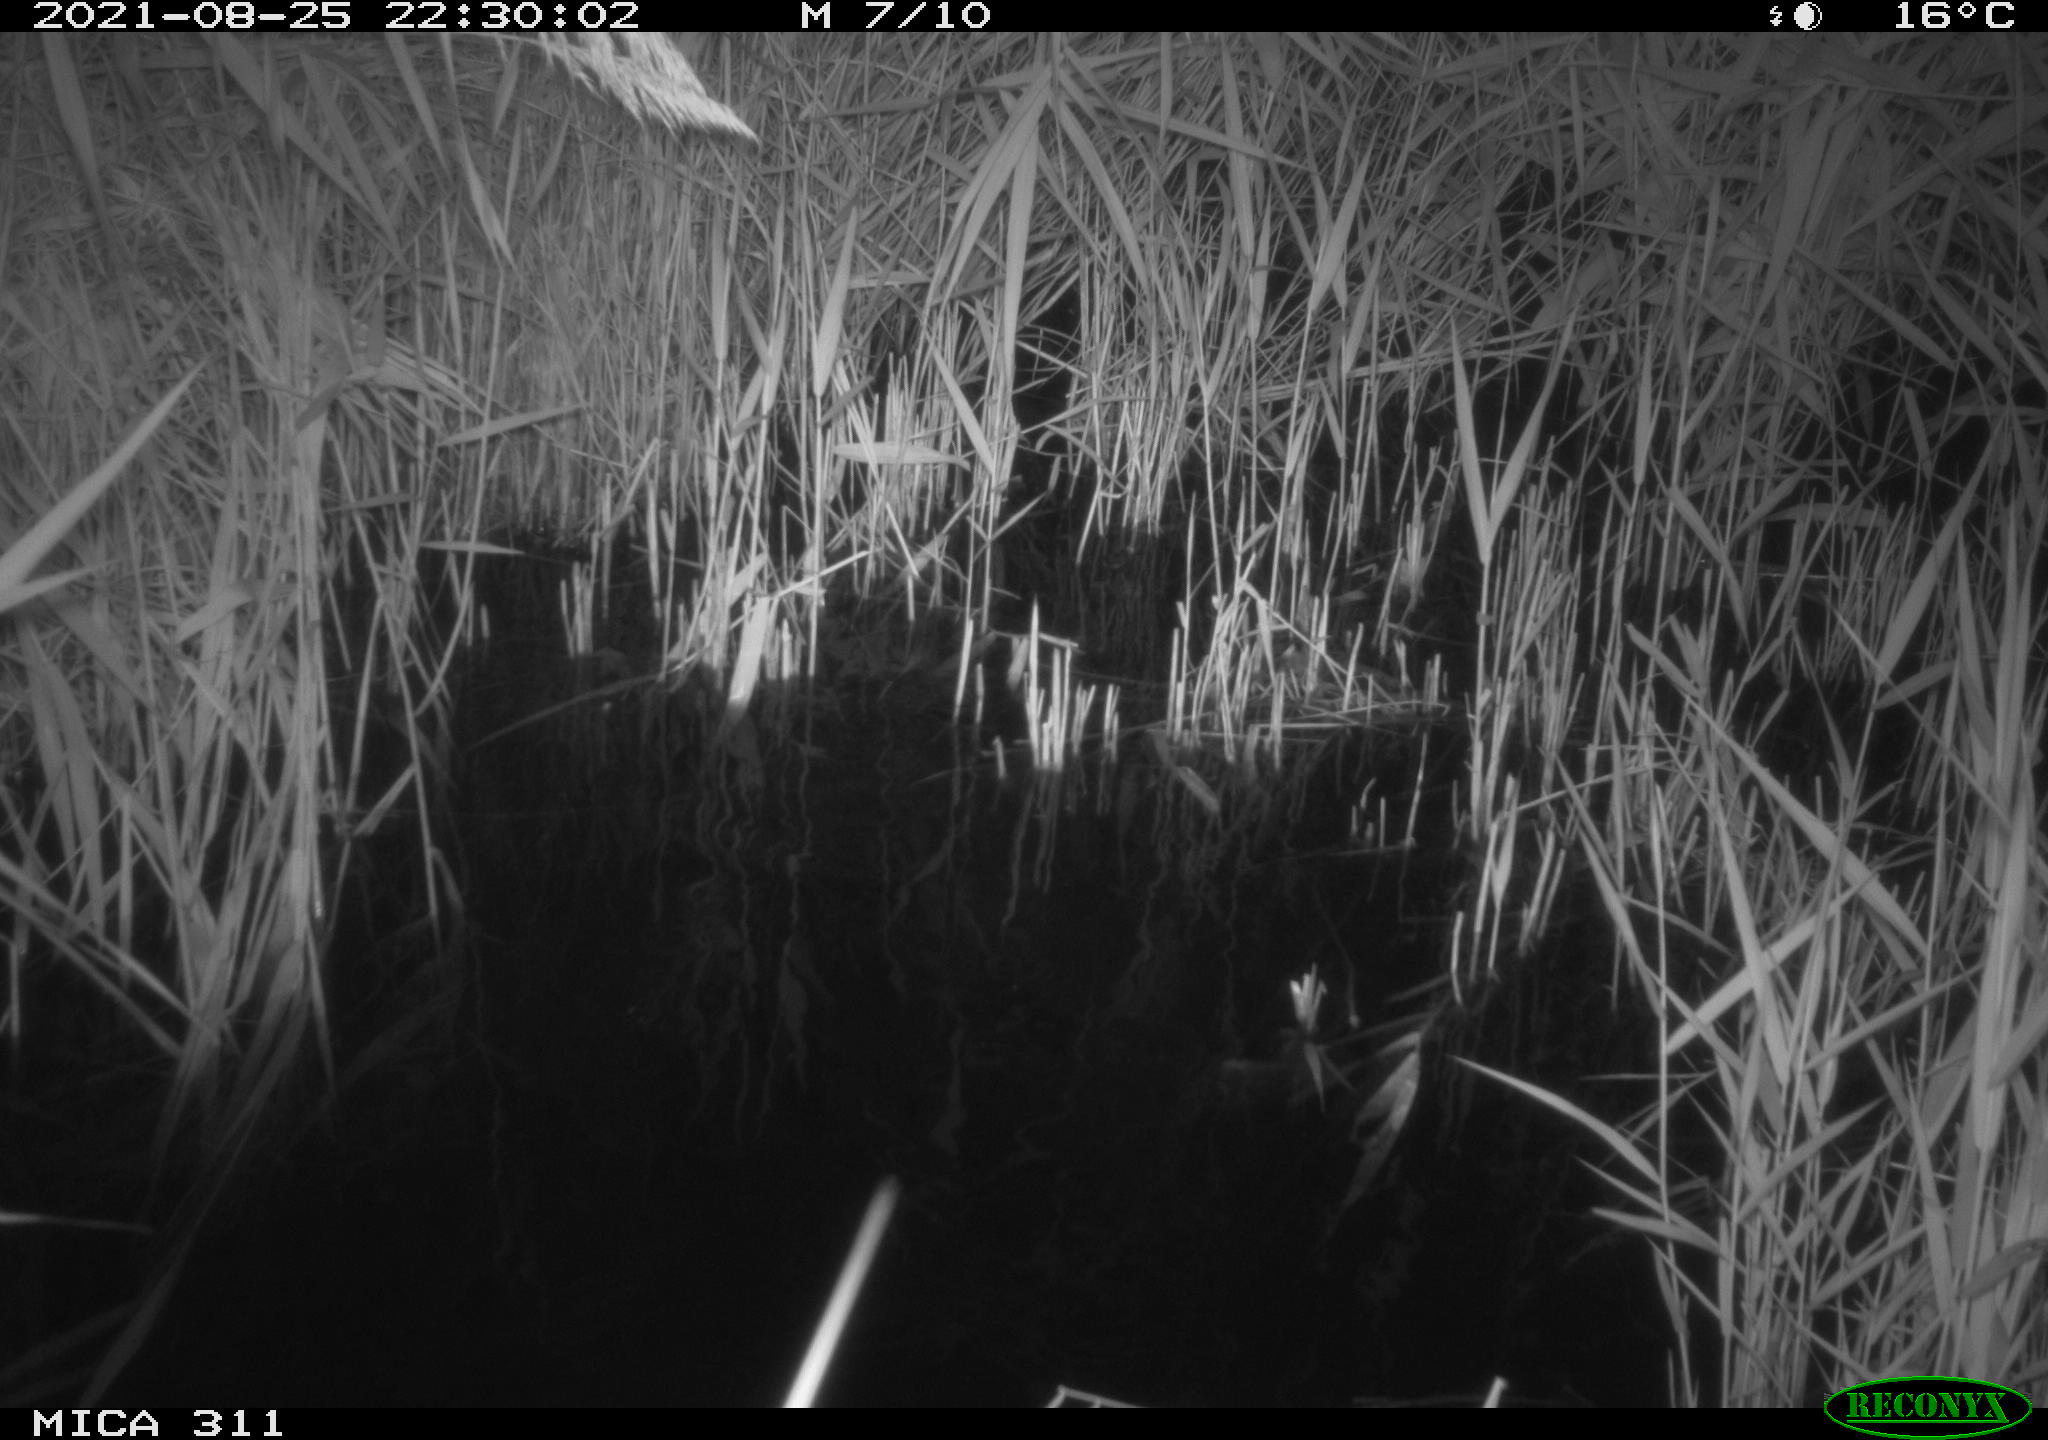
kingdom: Animalia
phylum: Chordata
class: Mammalia
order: Rodentia
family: Muridae
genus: Rattus
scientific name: Rattus norvegicus
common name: Brown rat
